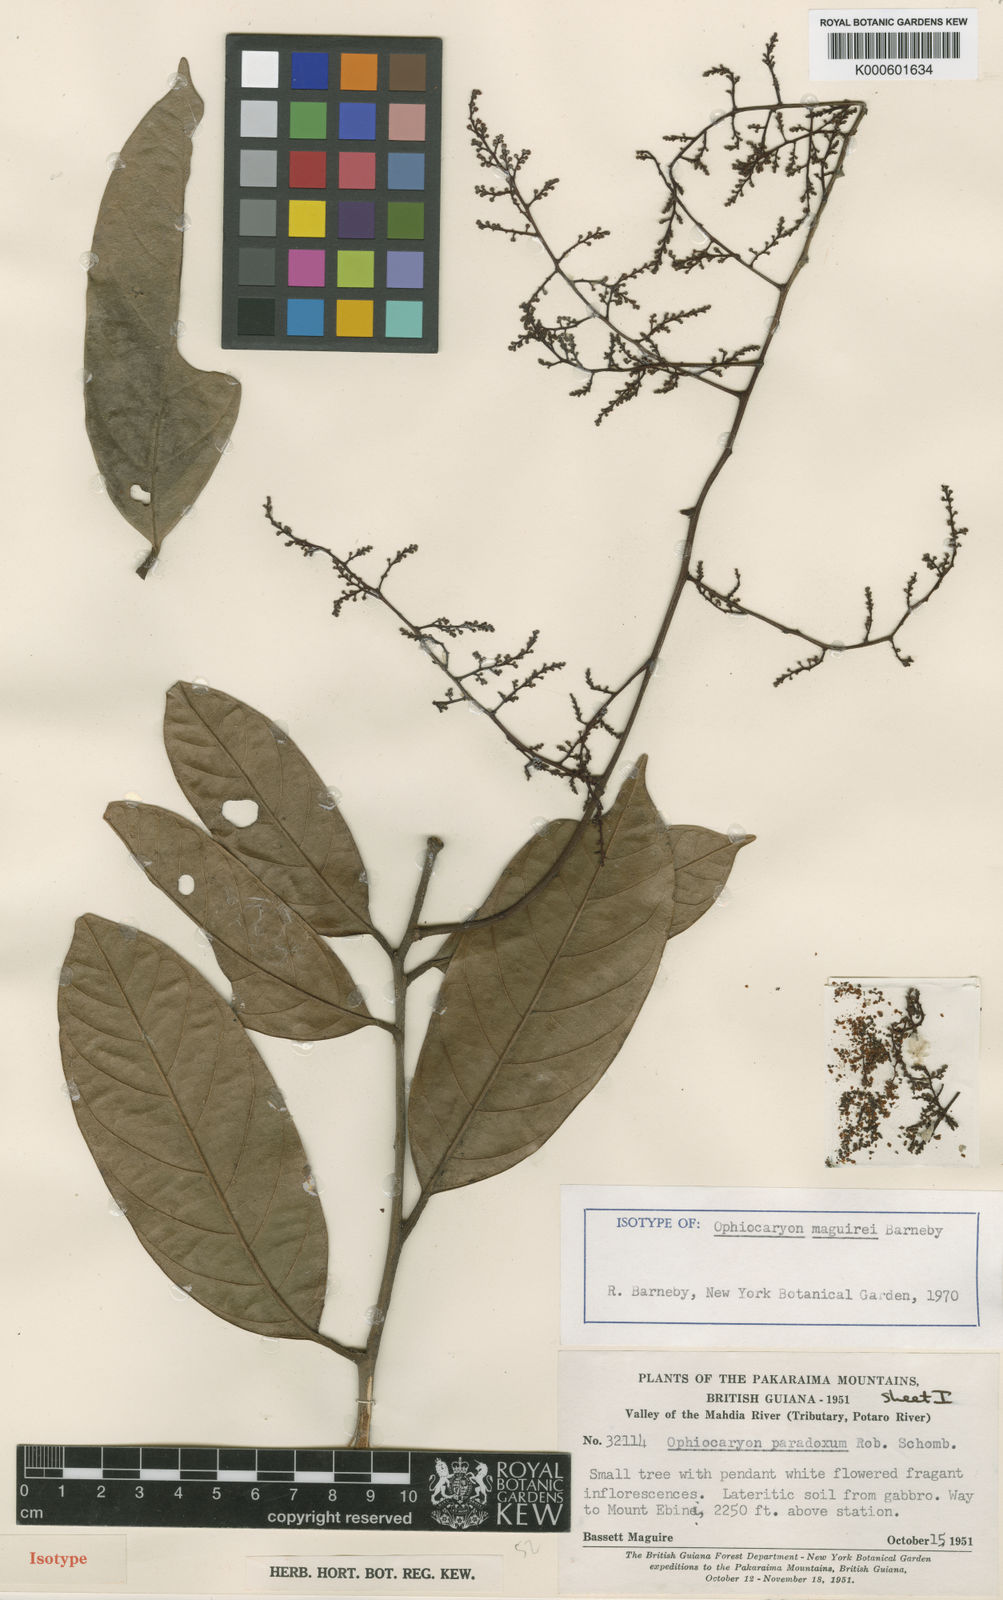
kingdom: Plantae
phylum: Tracheophyta
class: Magnoliopsida
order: Proteales
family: Sabiaceae
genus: Ophiocaryon
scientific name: Ophiocaryon maguirei
